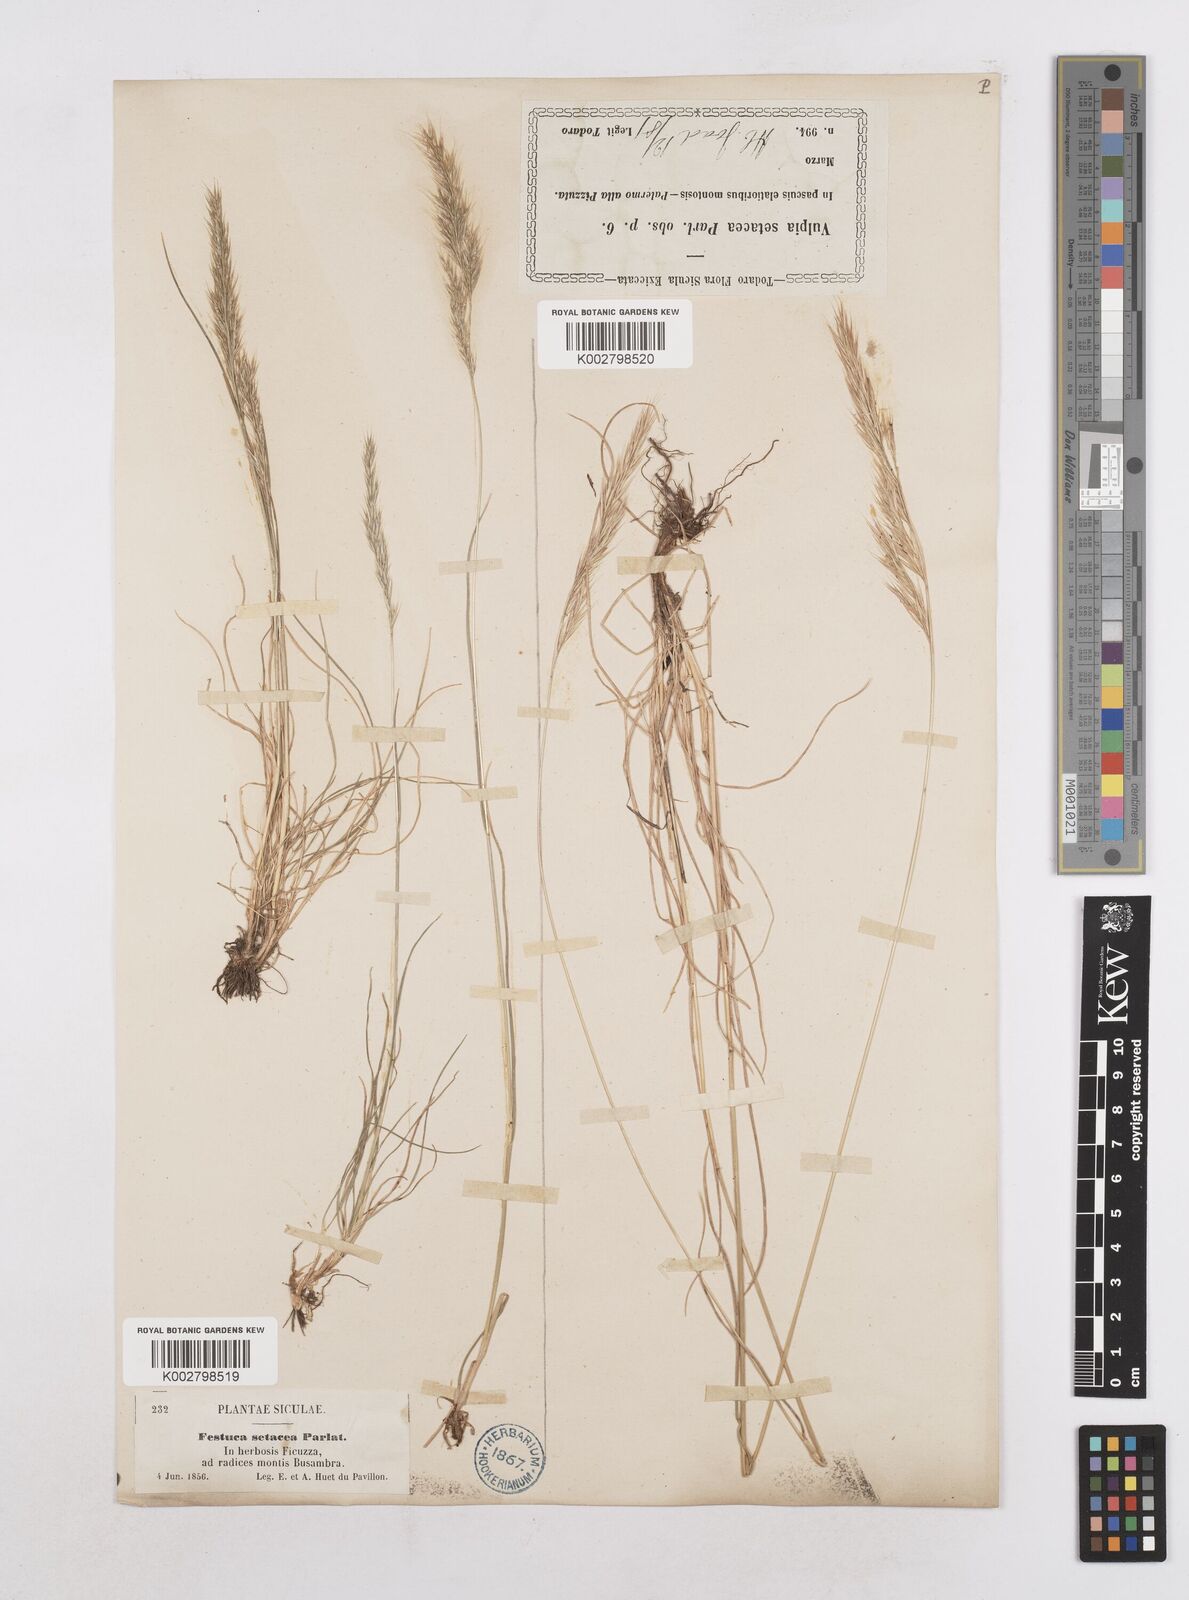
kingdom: Plantae
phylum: Tracheophyta
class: Liliopsida
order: Poales
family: Poaceae
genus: Festuca
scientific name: Festuca sicula
